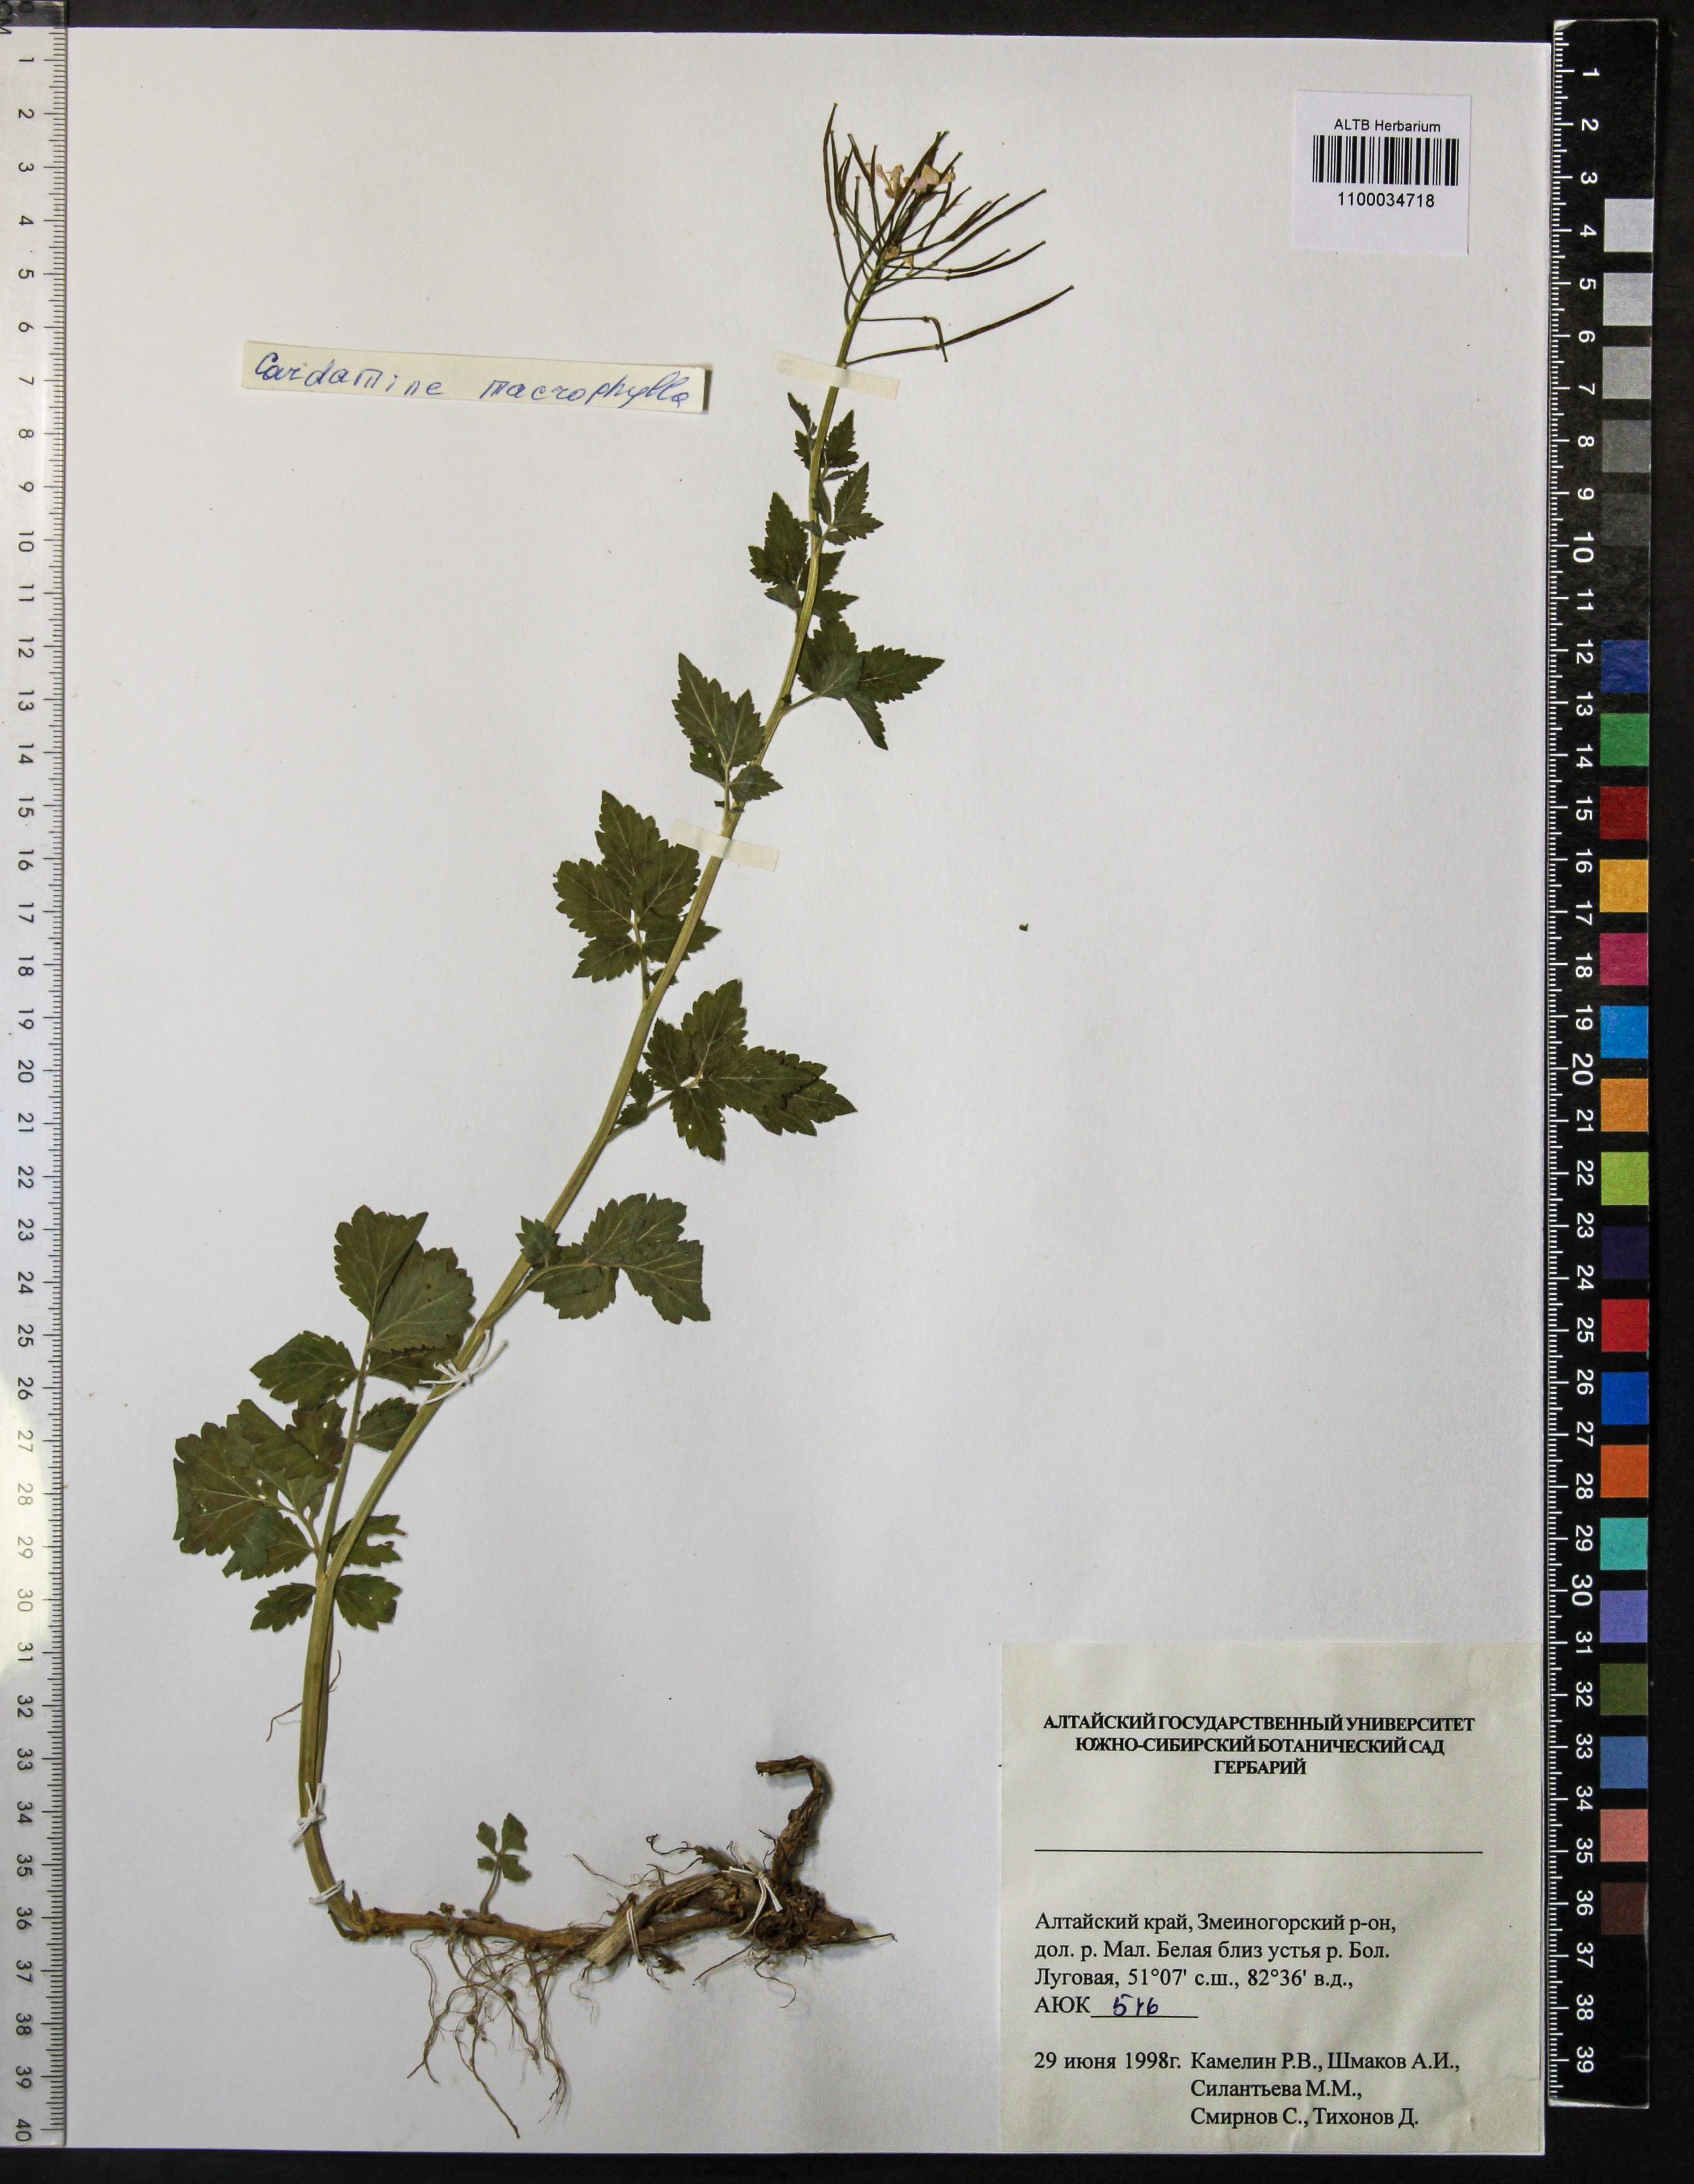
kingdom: Plantae
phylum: Tracheophyta
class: Magnoliopsida
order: Brassicales
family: Brassicaceae
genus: Cardamine
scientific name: Cardamine macrophylla
